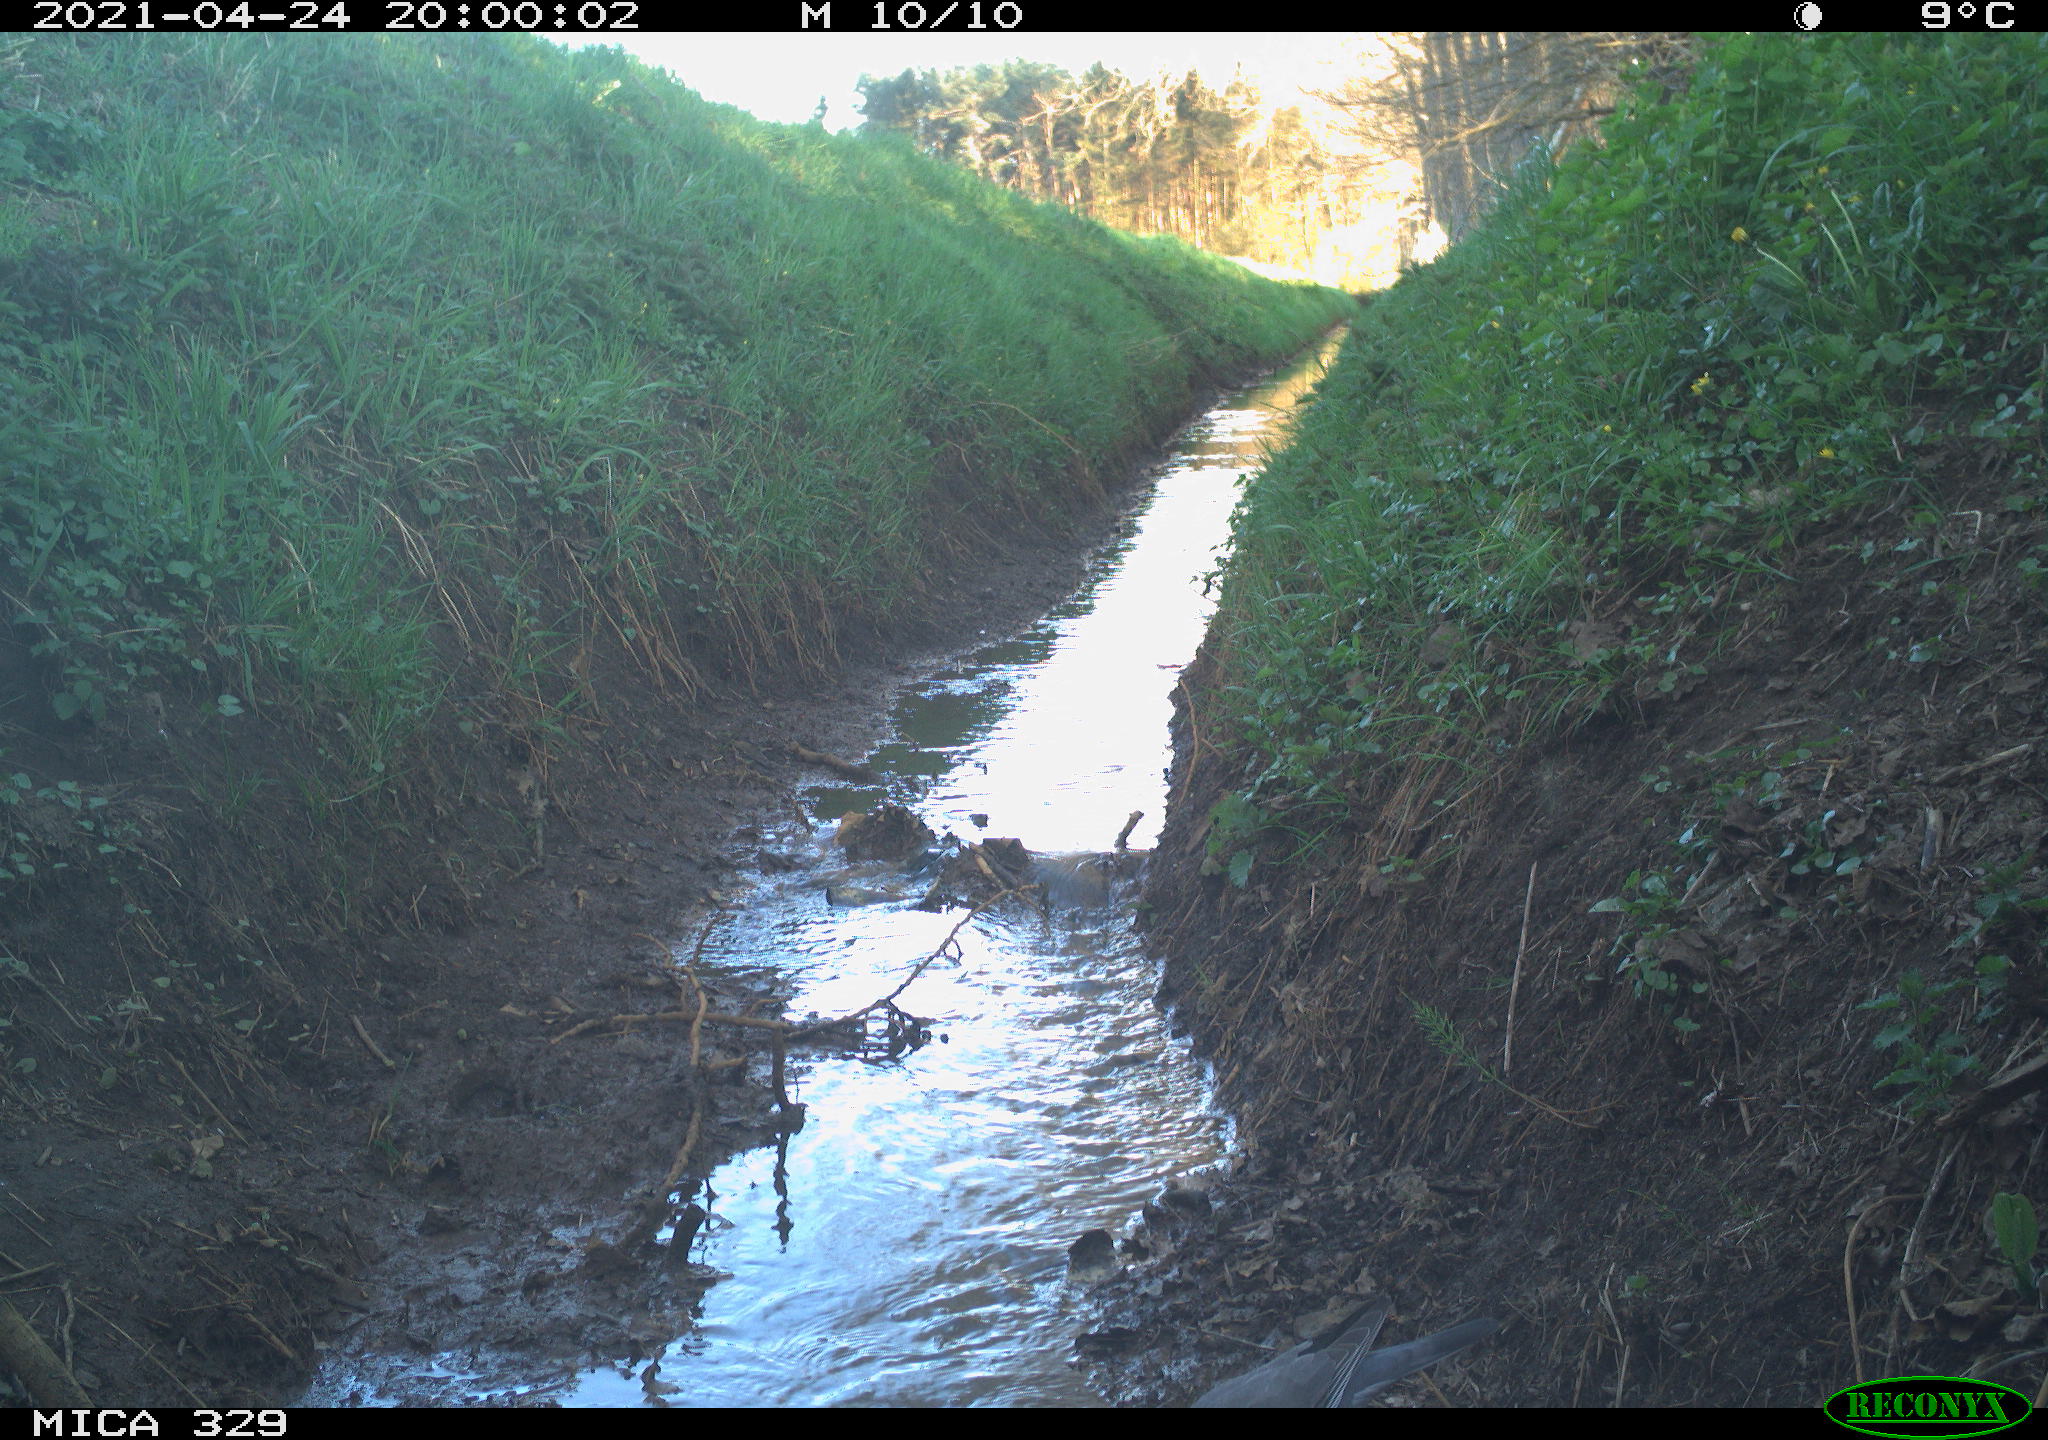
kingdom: Animalia
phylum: Chordata
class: Aves
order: Columbiformes
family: Columbidae
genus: Columba
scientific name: Columba palumbus
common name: Common wood pigeon
